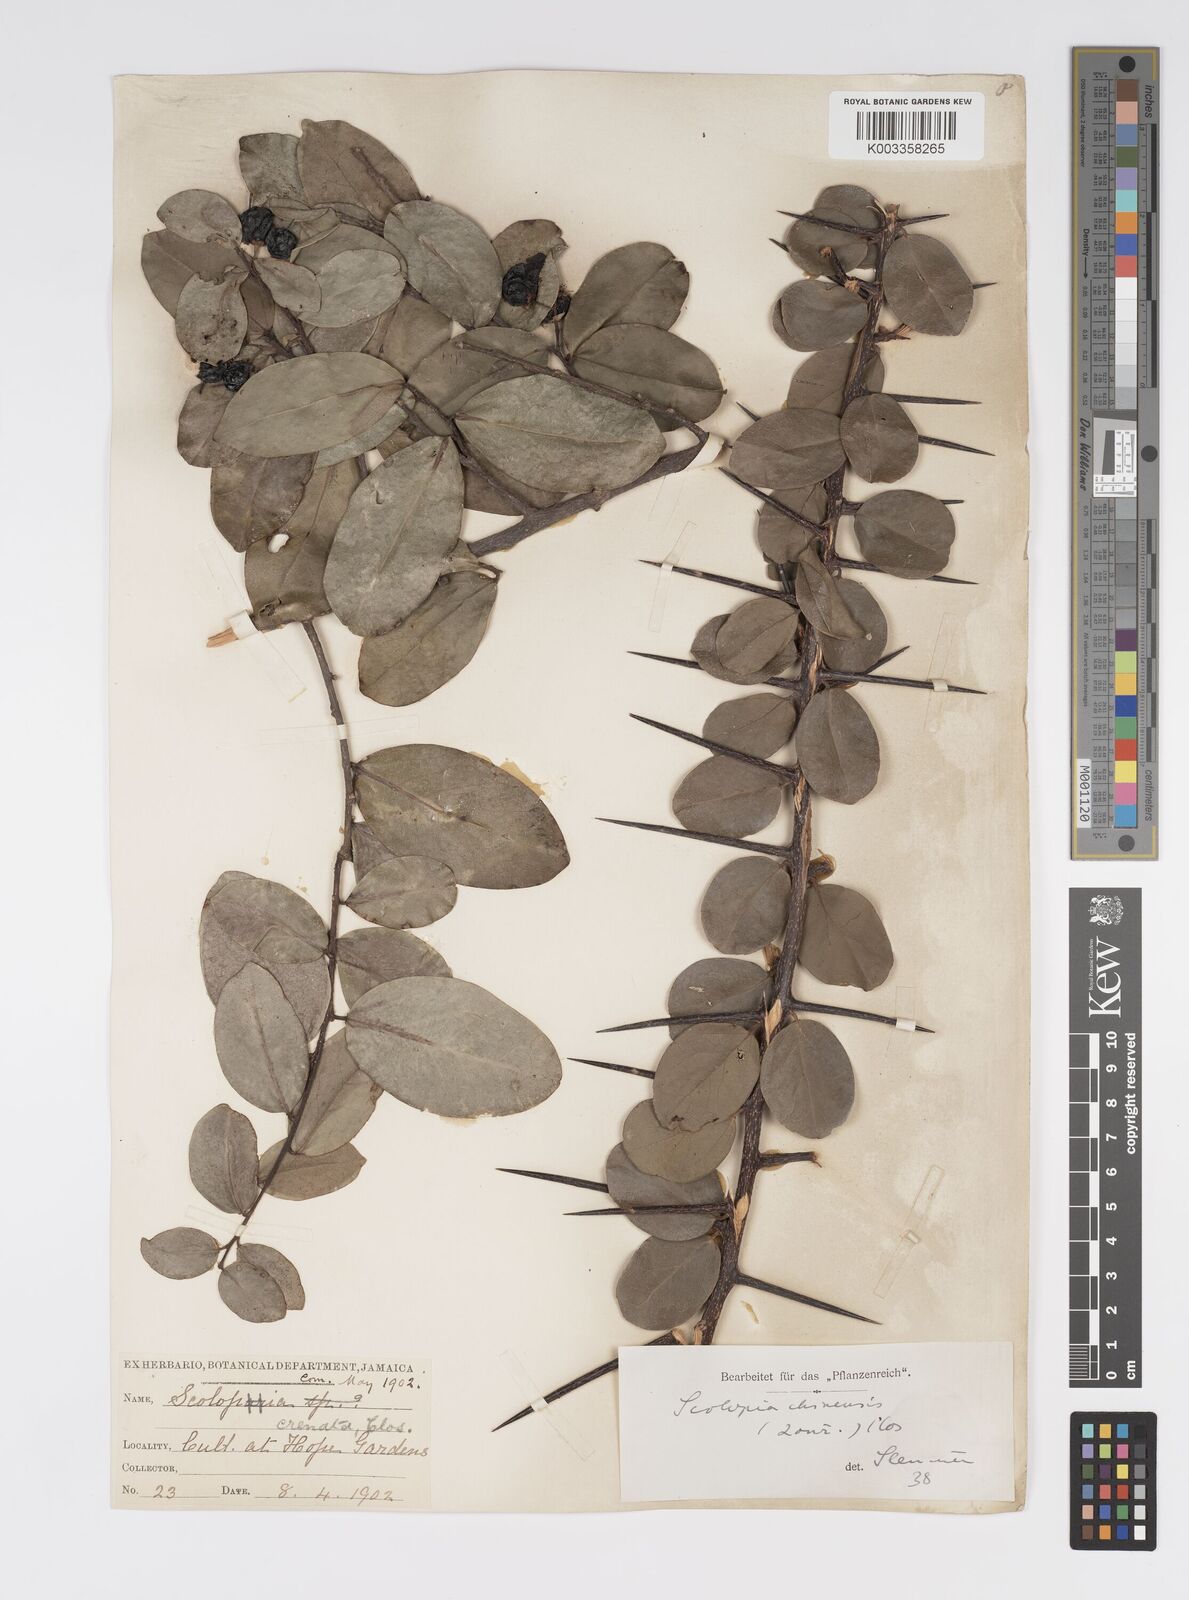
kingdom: Plantae
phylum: Tracheophyta
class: Magnoliopsida
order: Malpighiales
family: Salicaceae
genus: Scolopia
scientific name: Scolopia chinensis
